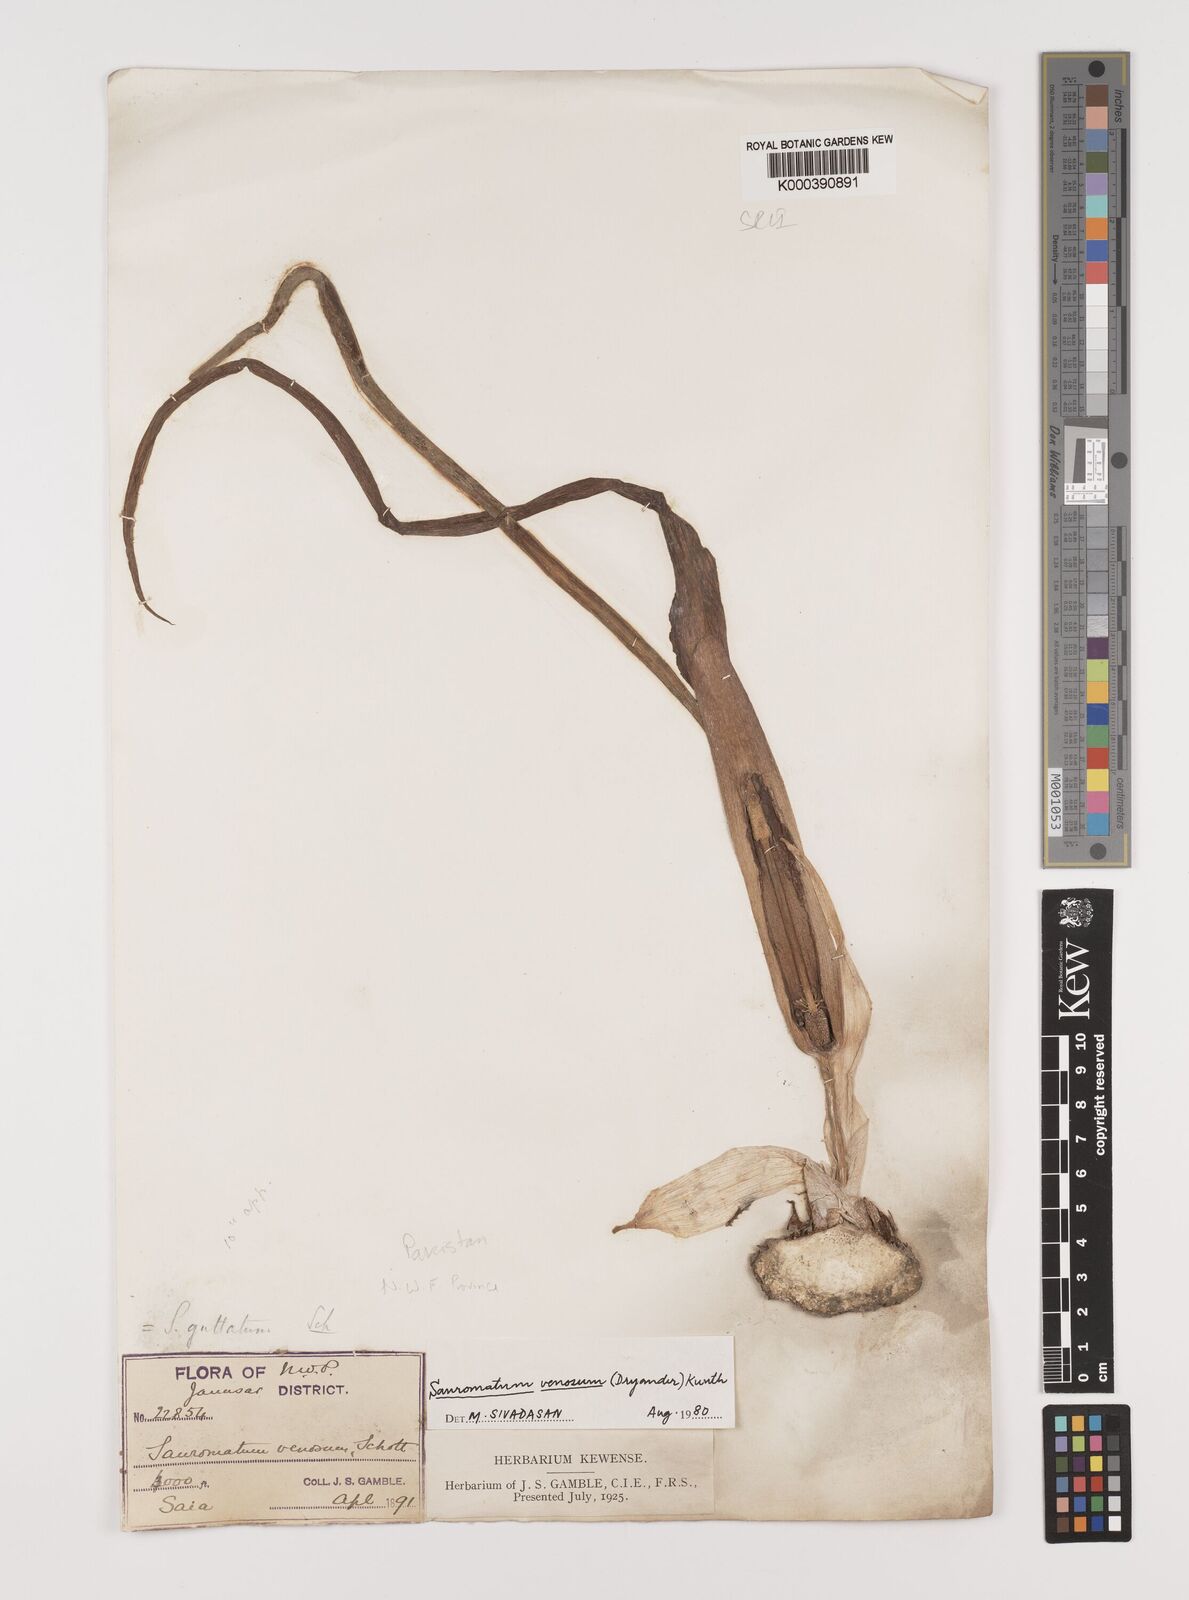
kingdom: Plantae
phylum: Tracheophyta
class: Liliopsida
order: Alismatales
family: Araceae
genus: Sauromatum
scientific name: Sauromatum venosum
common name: Voodoo lily
